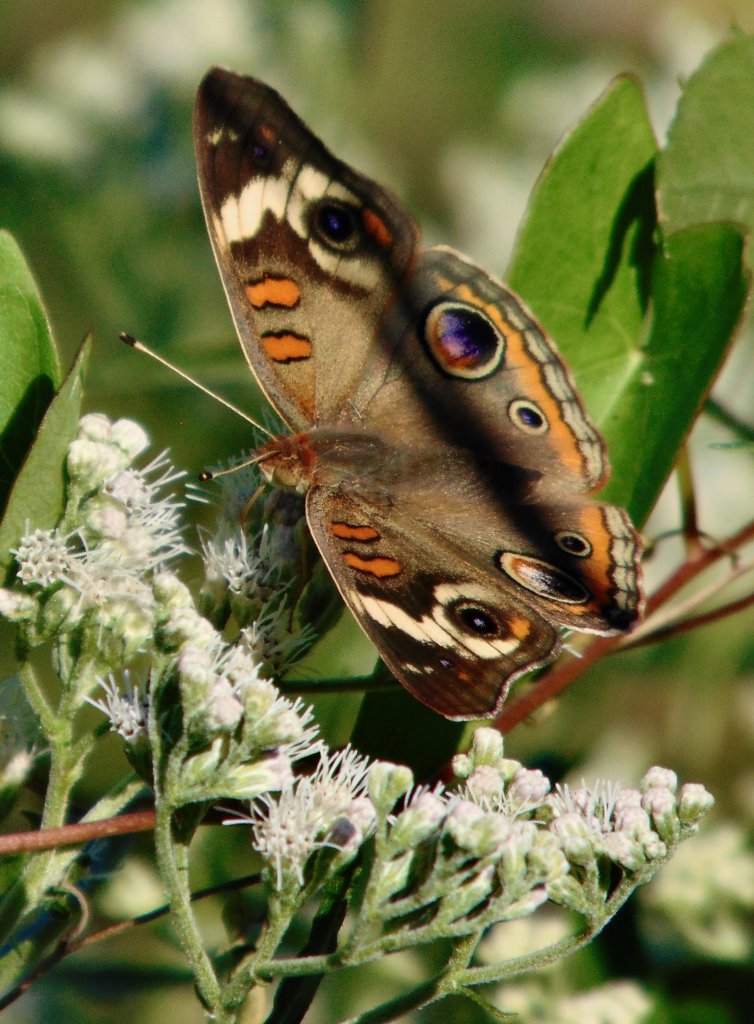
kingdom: Animalia
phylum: Arthropoda
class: Insecta
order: Lepidoptera
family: Nymphalidae
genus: Junonia
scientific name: Junonia coenia
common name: Common Buckeye
